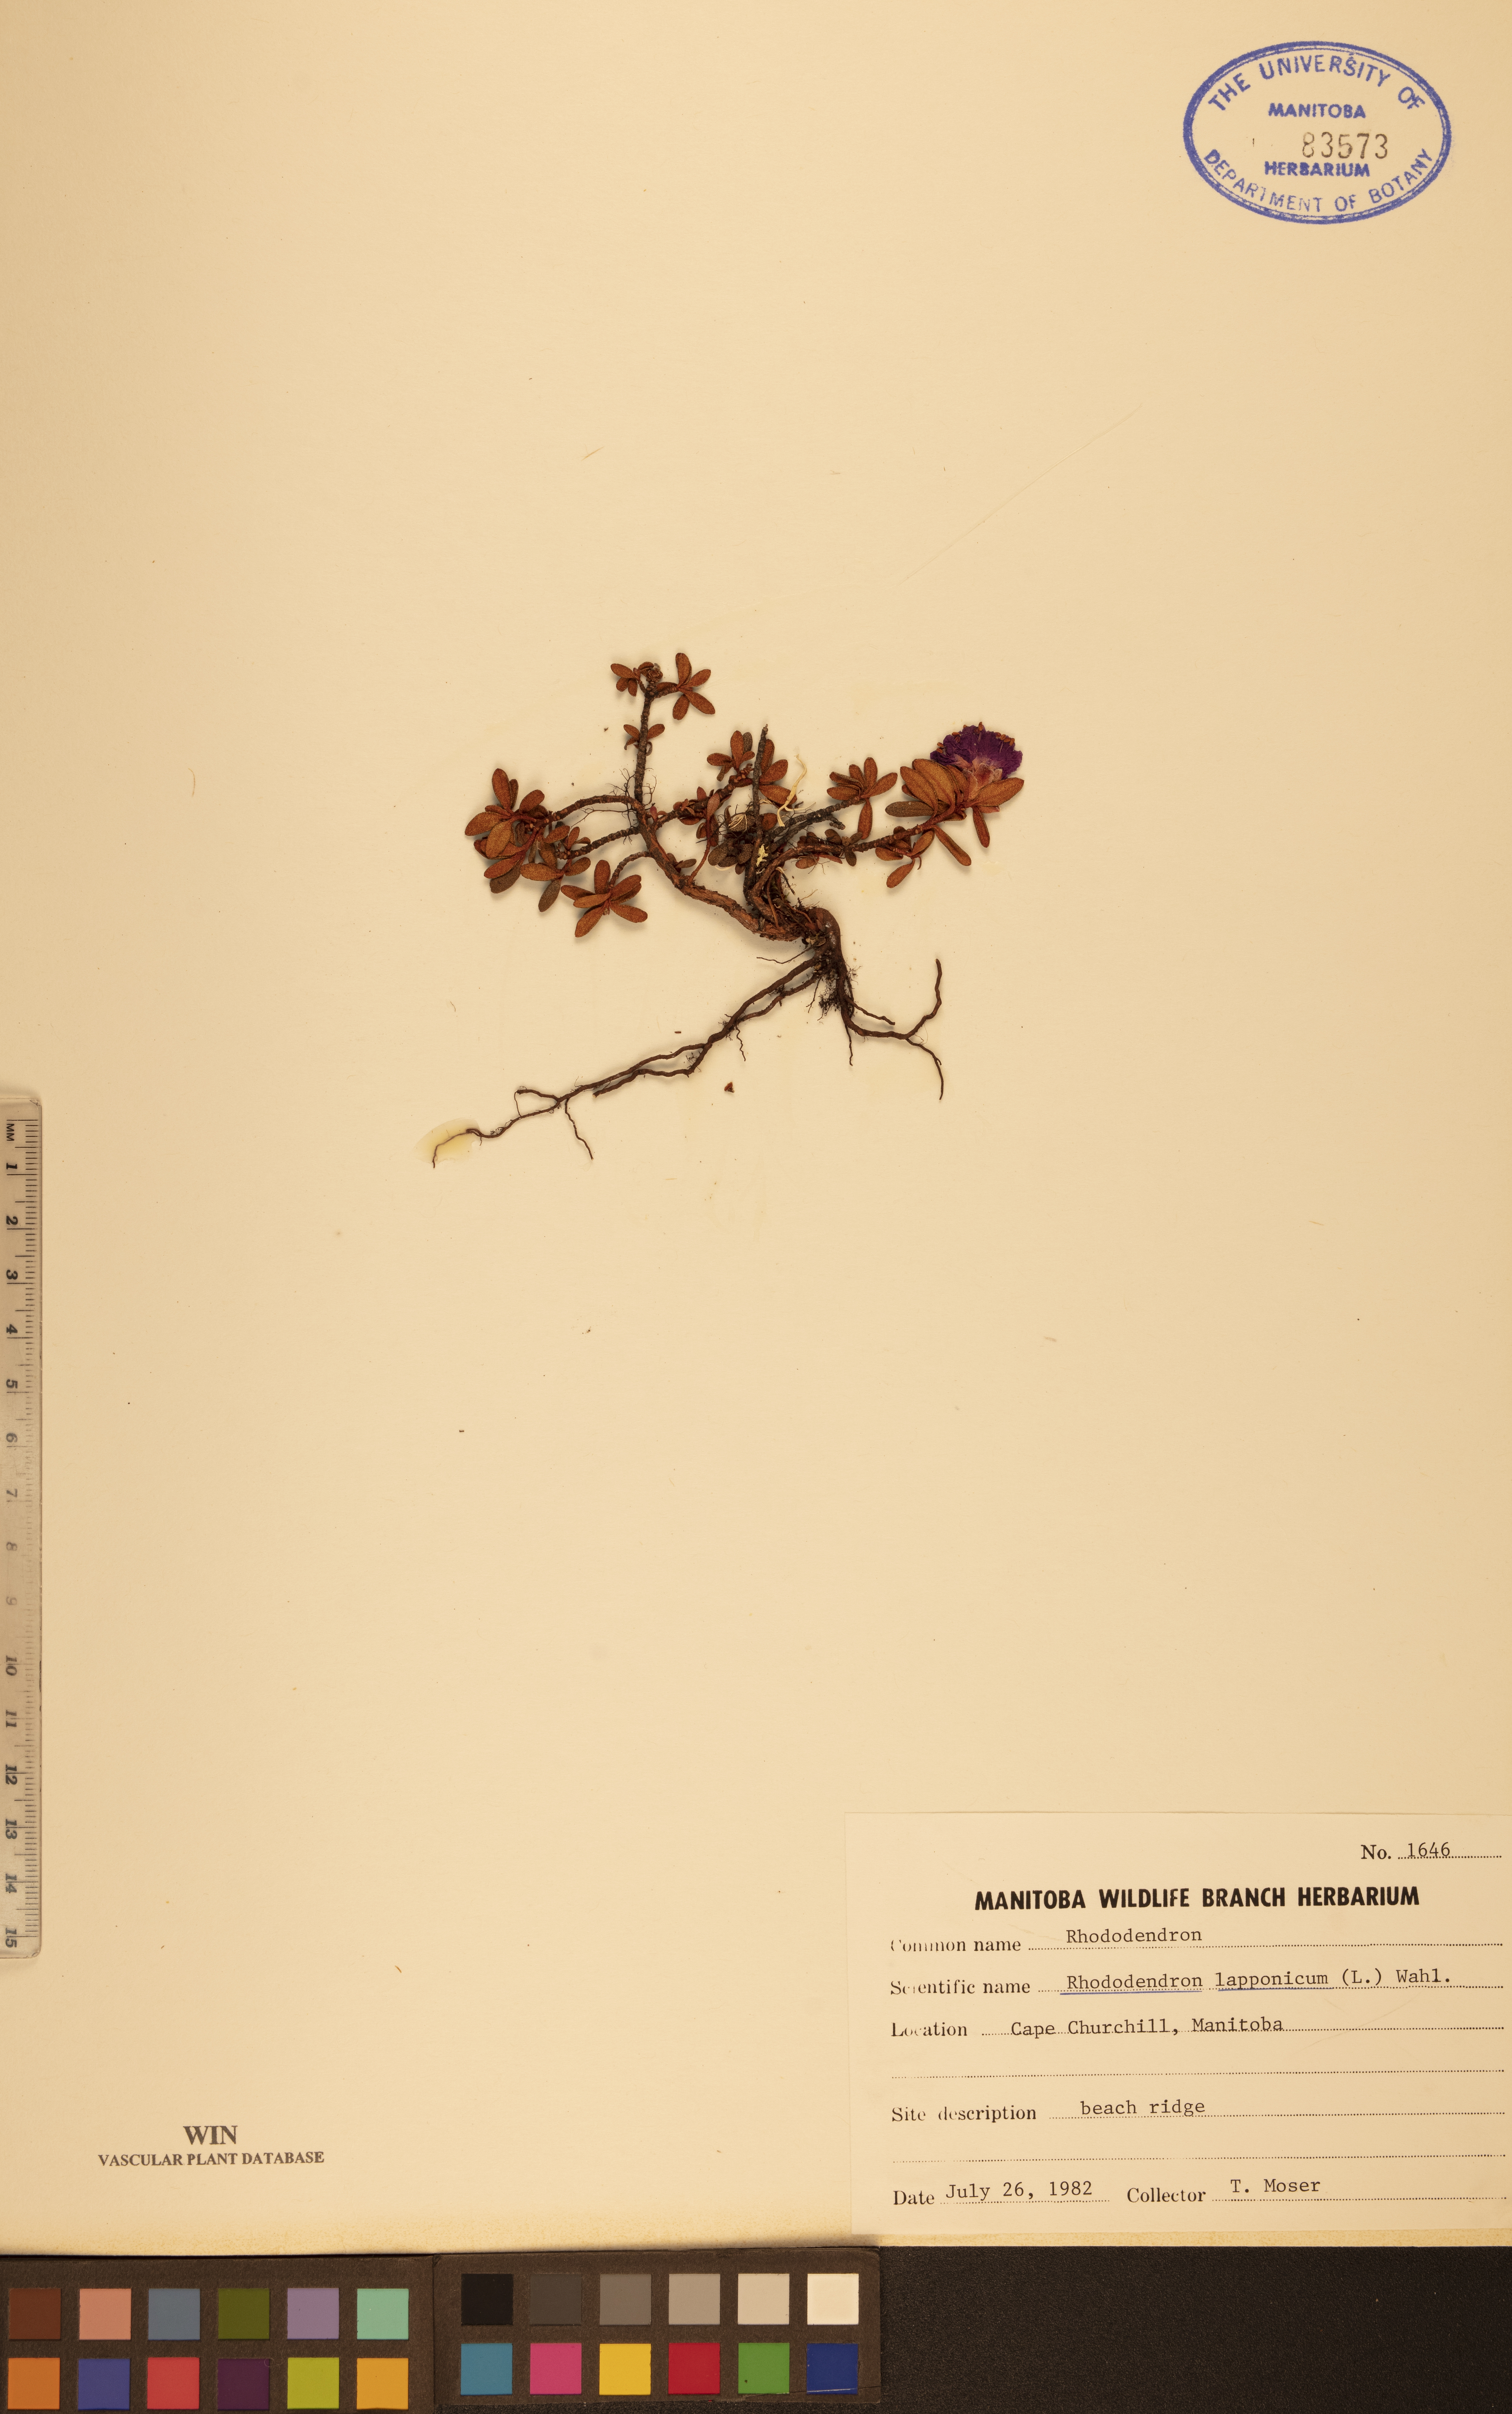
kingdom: Plantae
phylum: Tracheophyta
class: Magnoliopsida
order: Ericales
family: Ericaceae
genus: Rhododendron
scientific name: Rhododendron lapponicum
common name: Lapland rhododendron
